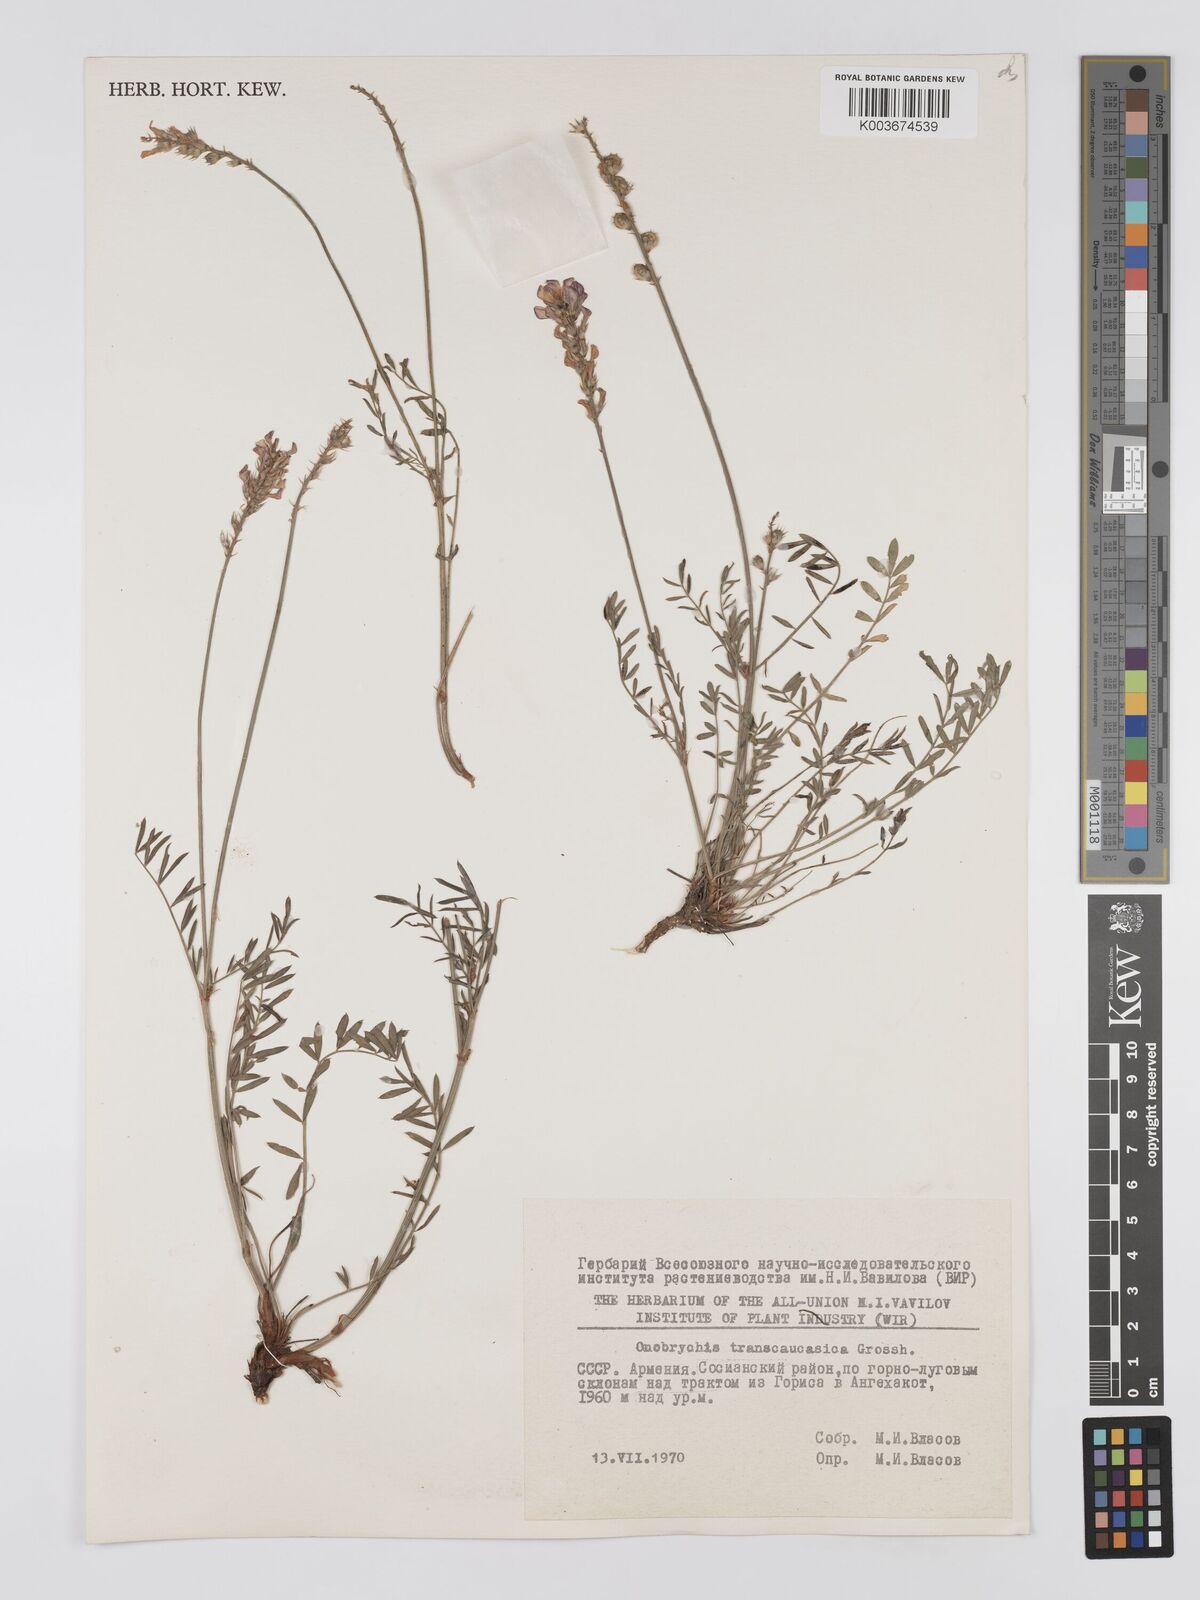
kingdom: Plantae
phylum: Tracheophyta
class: Magnoliopsida
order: Fabales
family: Fabaceae
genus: Onobrychis
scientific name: Onobrychis transcaucasica
